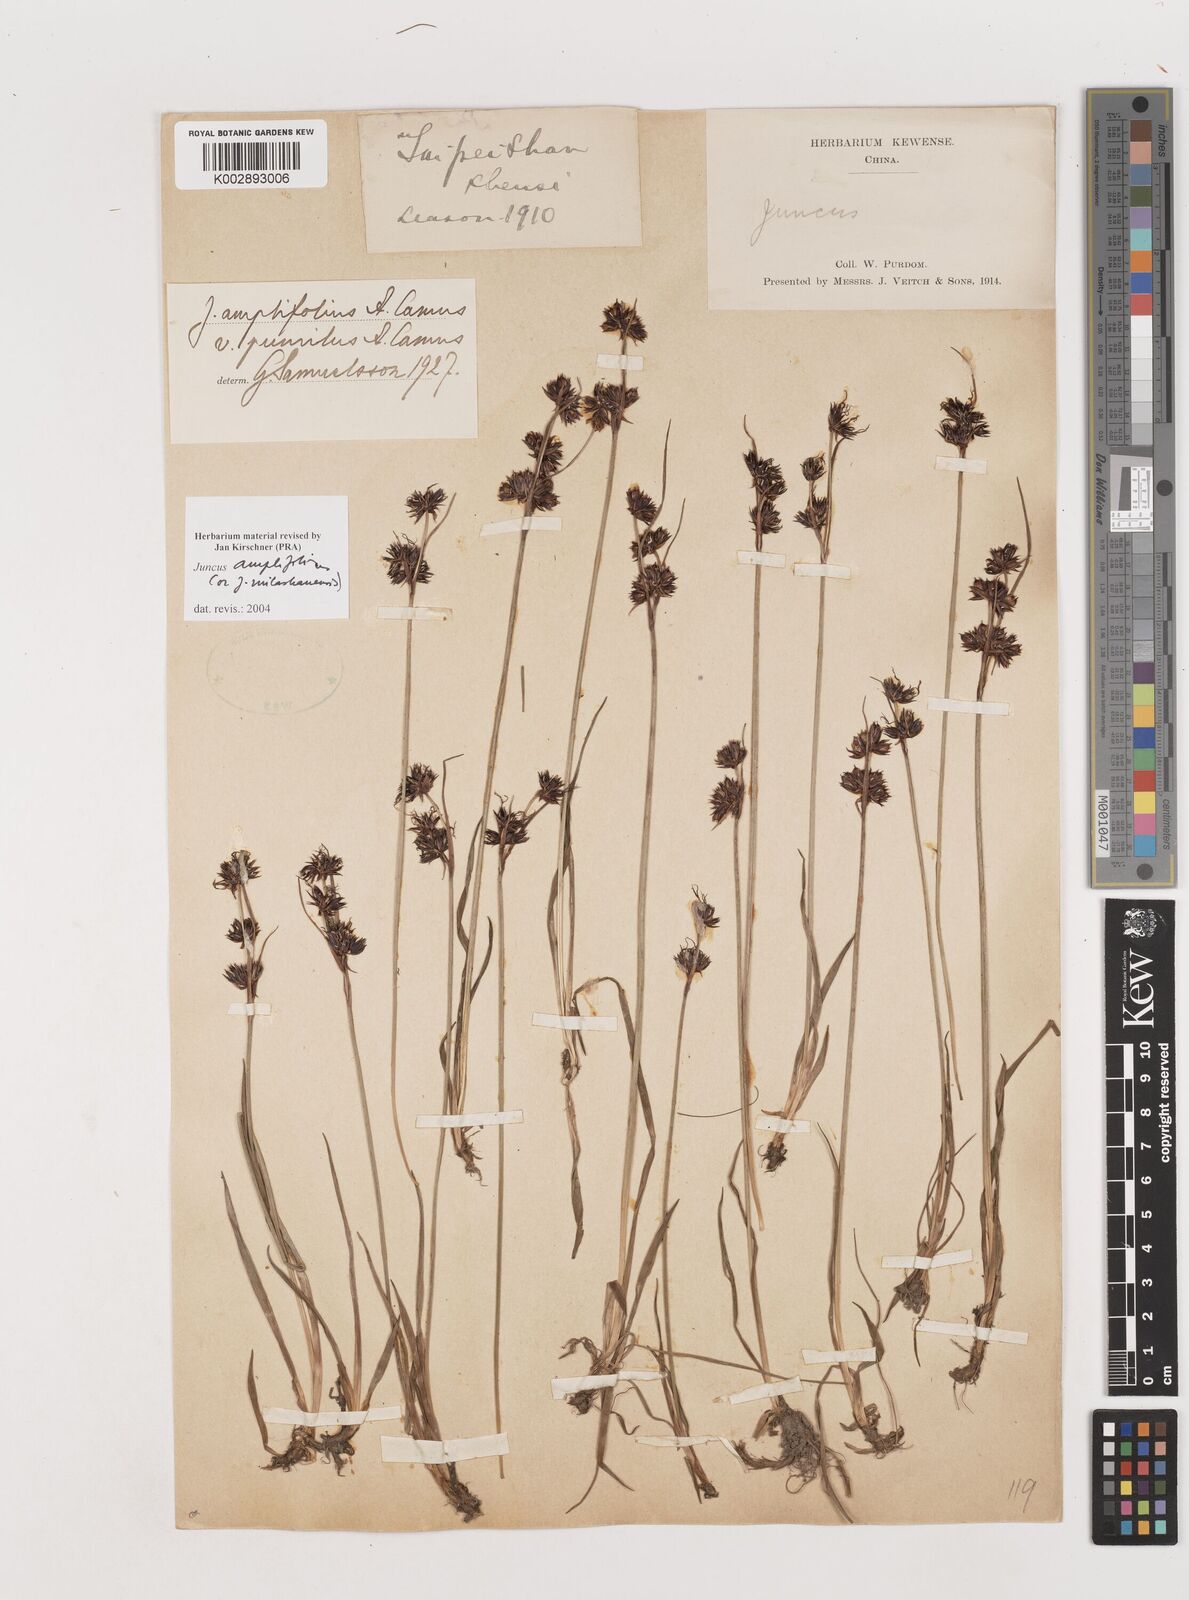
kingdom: Plantae
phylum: Tracheophyta
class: Liliopsida
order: Poales
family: Juncaceae
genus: Juncus
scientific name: Juncus amplifolius
